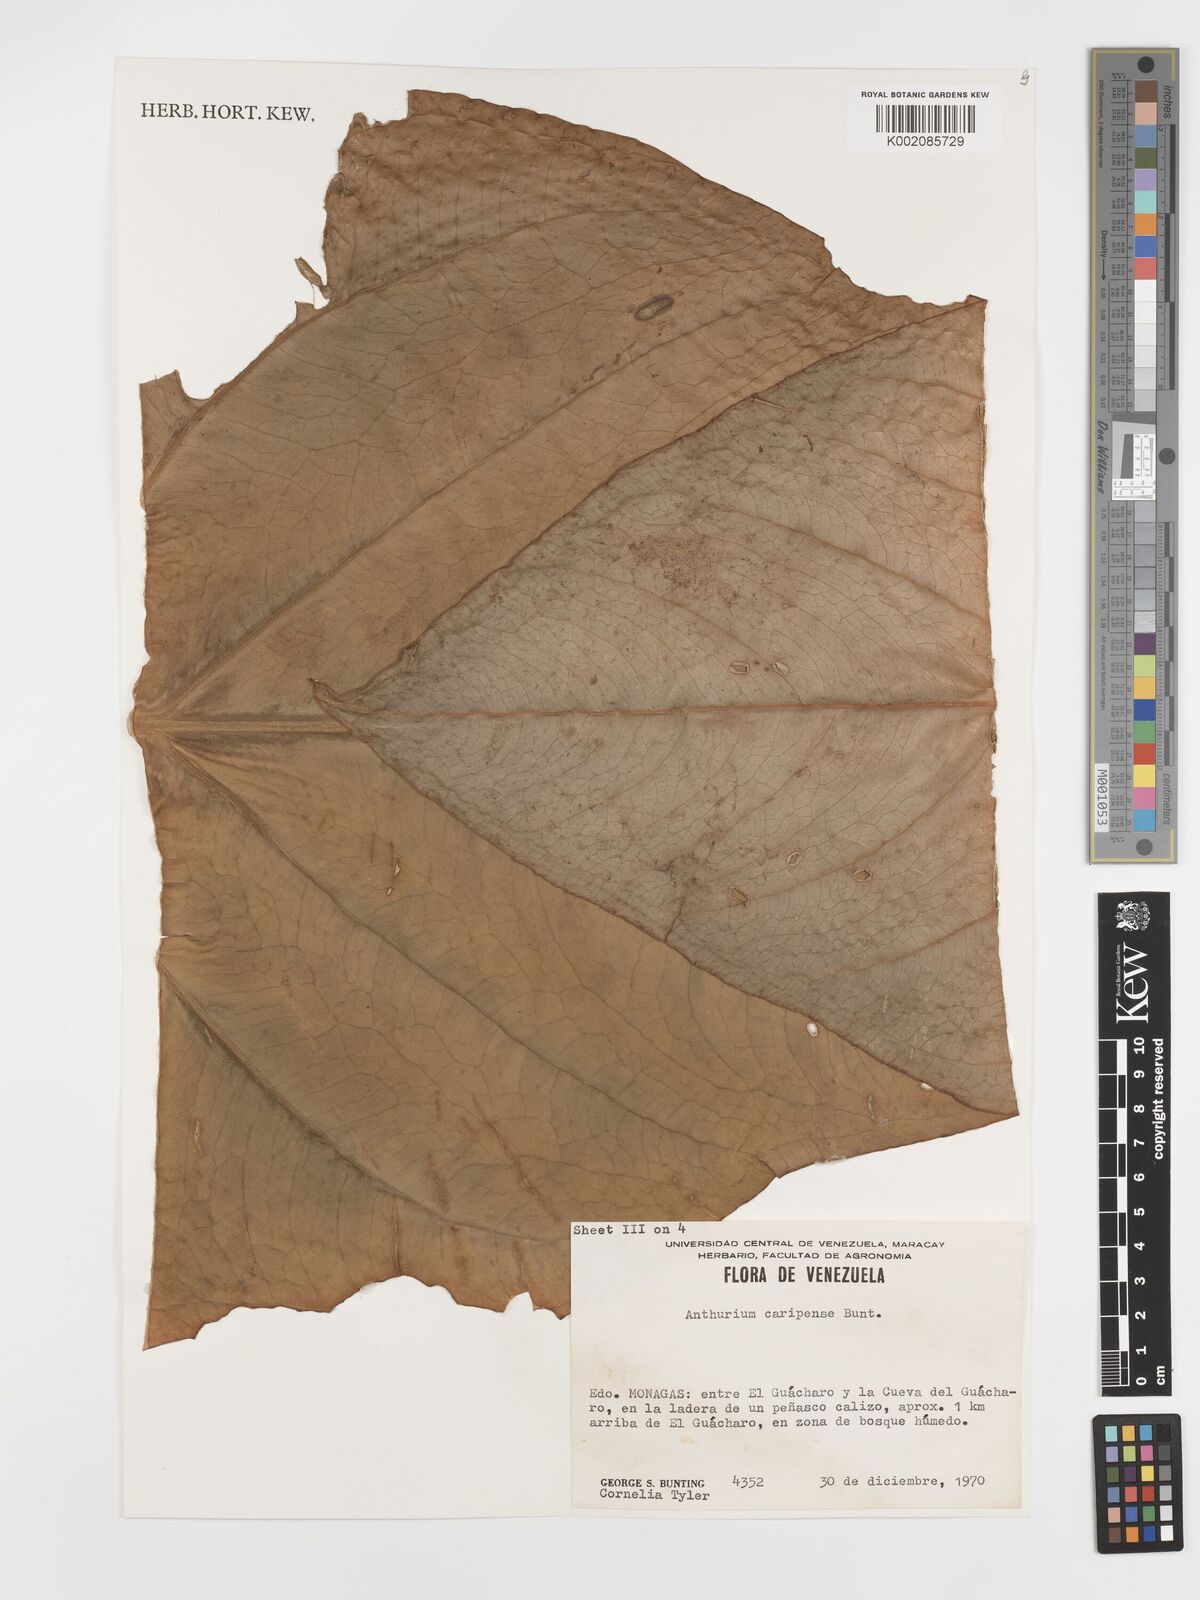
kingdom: Plantae
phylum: Tracheophyta
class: Liliopsida
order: Alismatales
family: Araceae
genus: Anthurium
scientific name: Anthurium caripense
